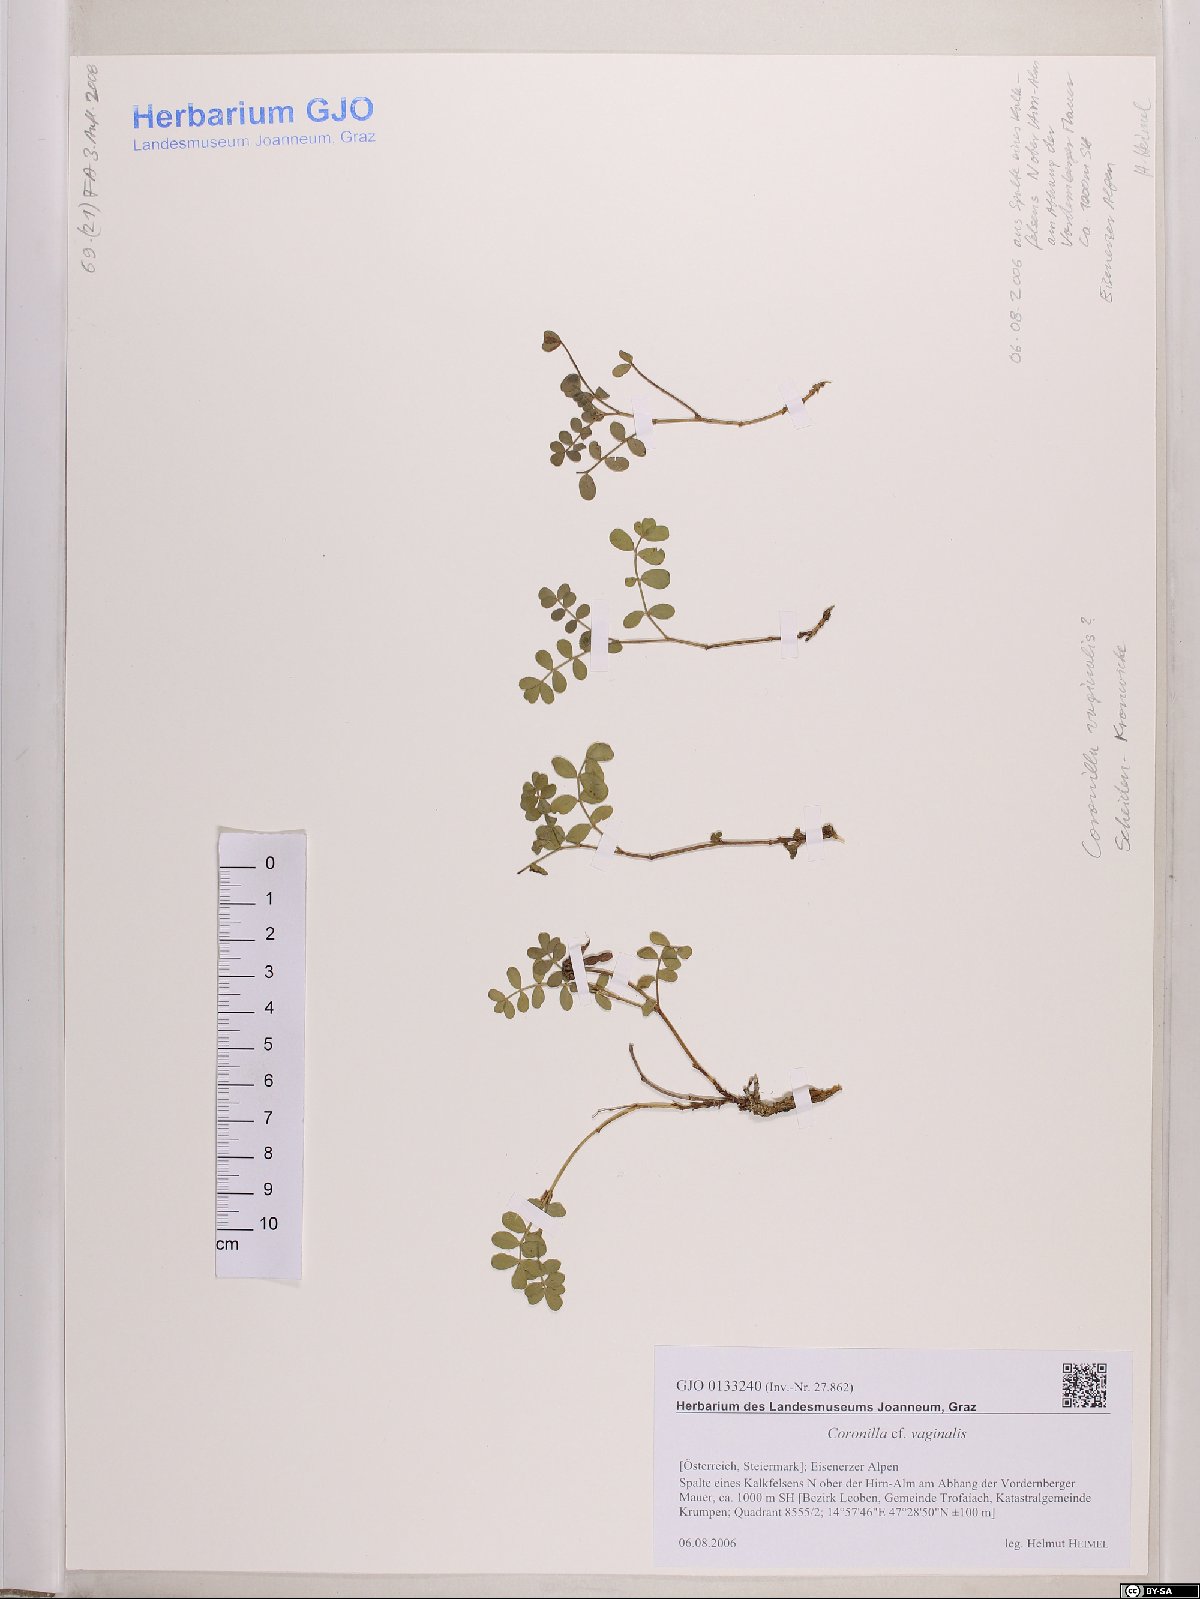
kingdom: Plantae
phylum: Tracheophyta
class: Magnoliopsida
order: Fabales
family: Fabaceae
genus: Coronilla
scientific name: Coronilla vaginalis
